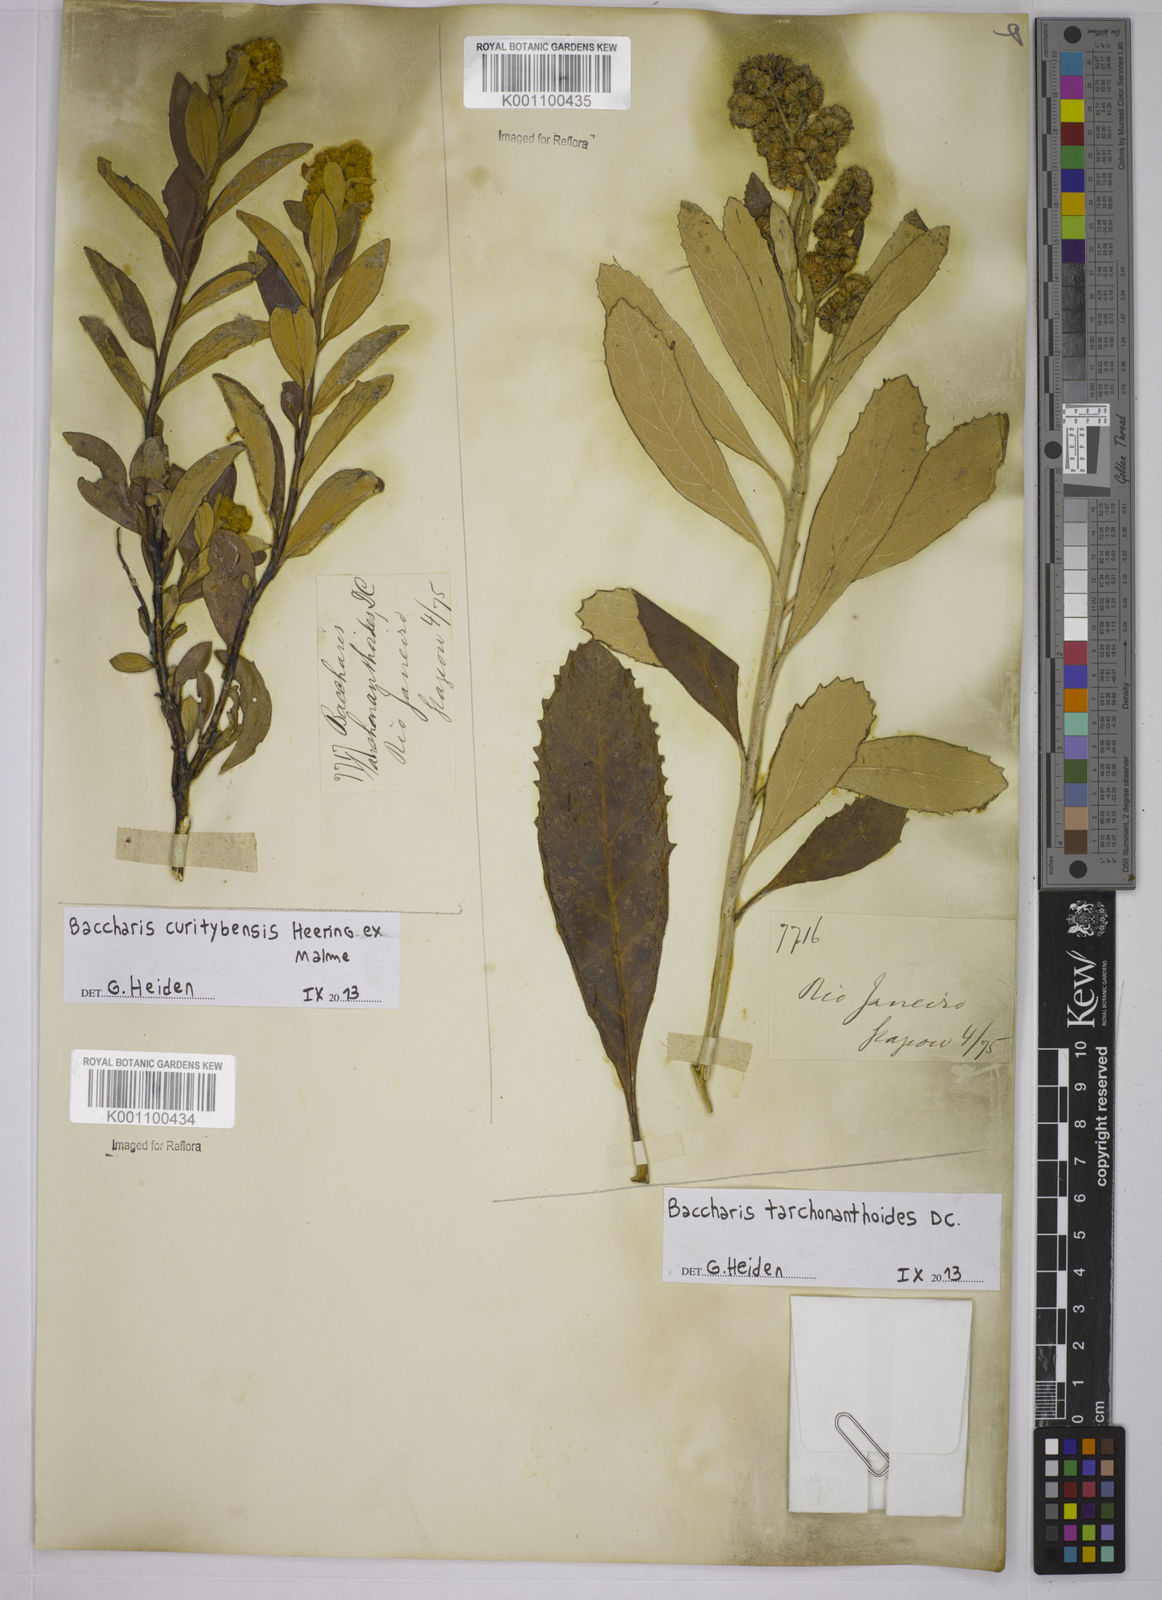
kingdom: Plantae
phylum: Tracheophyta
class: Magnoliopsida
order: Asterales
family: Asteraceae
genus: Baccharis
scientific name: Baccharis
